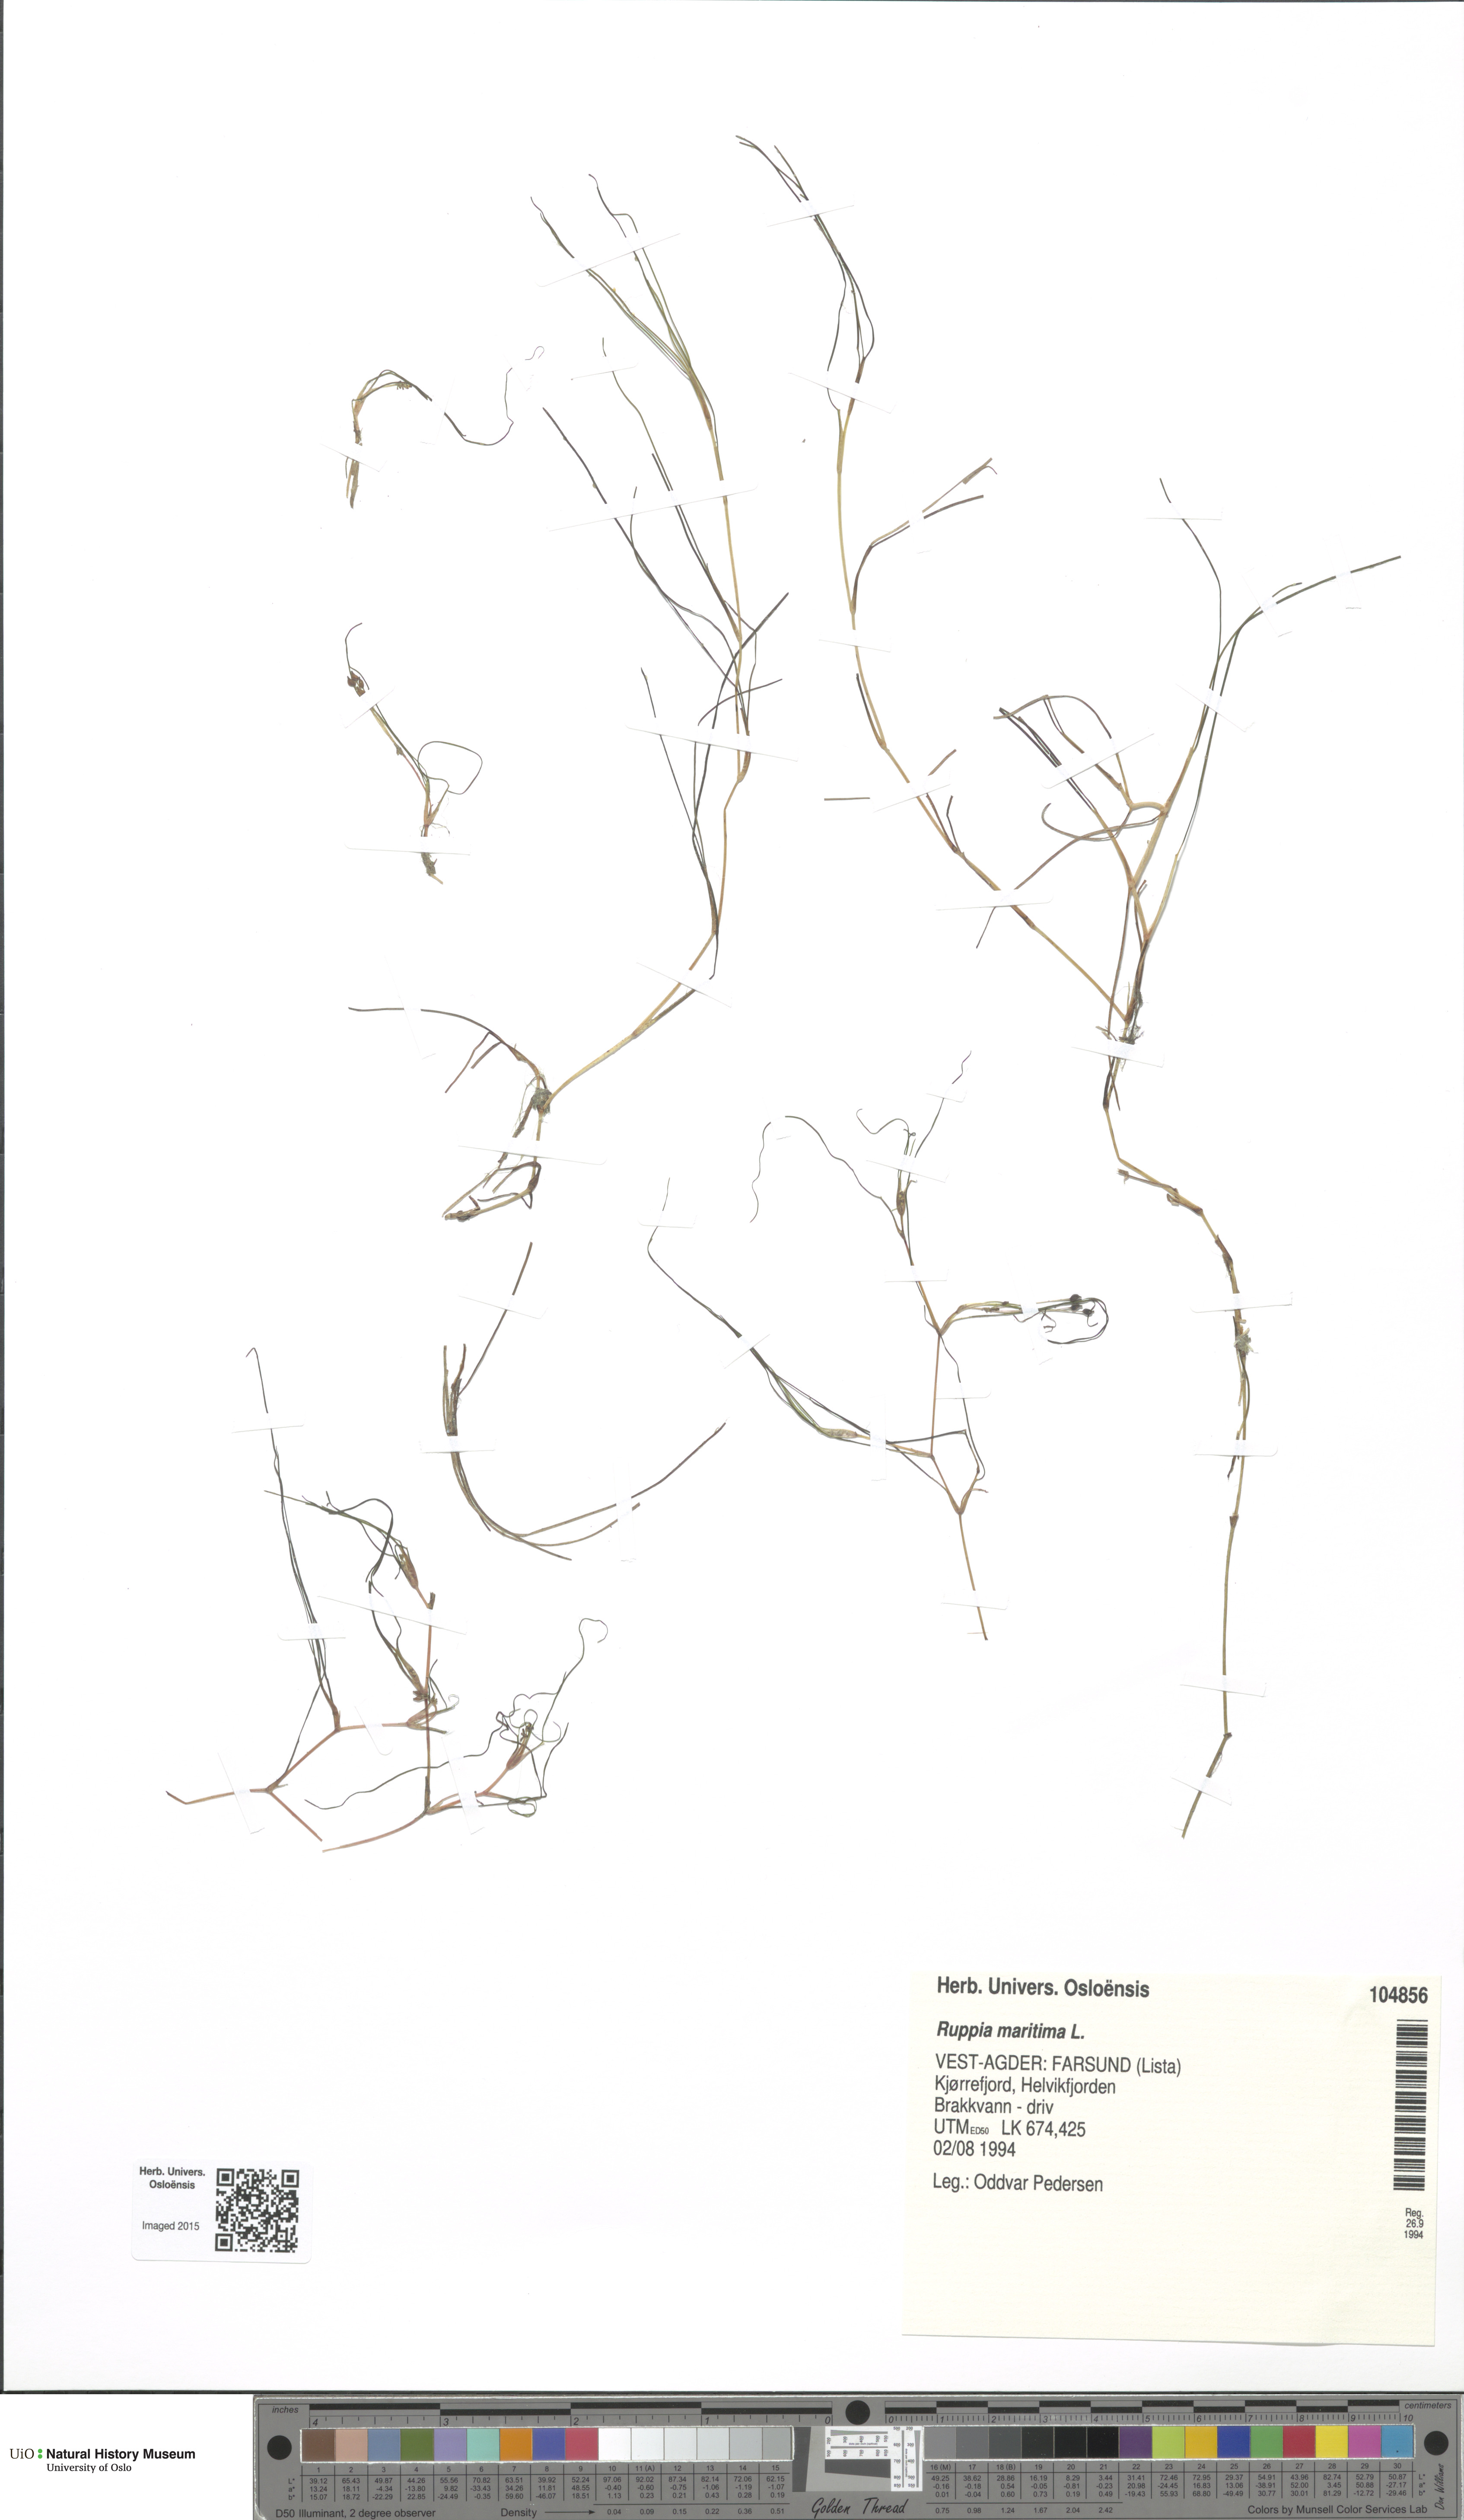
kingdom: Plantae
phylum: Tracheophyta
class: Liliopsida
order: Alismatales
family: Ruppiaceae
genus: Ruppia
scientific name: Ruppia maritima
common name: Beaked tasselweed
